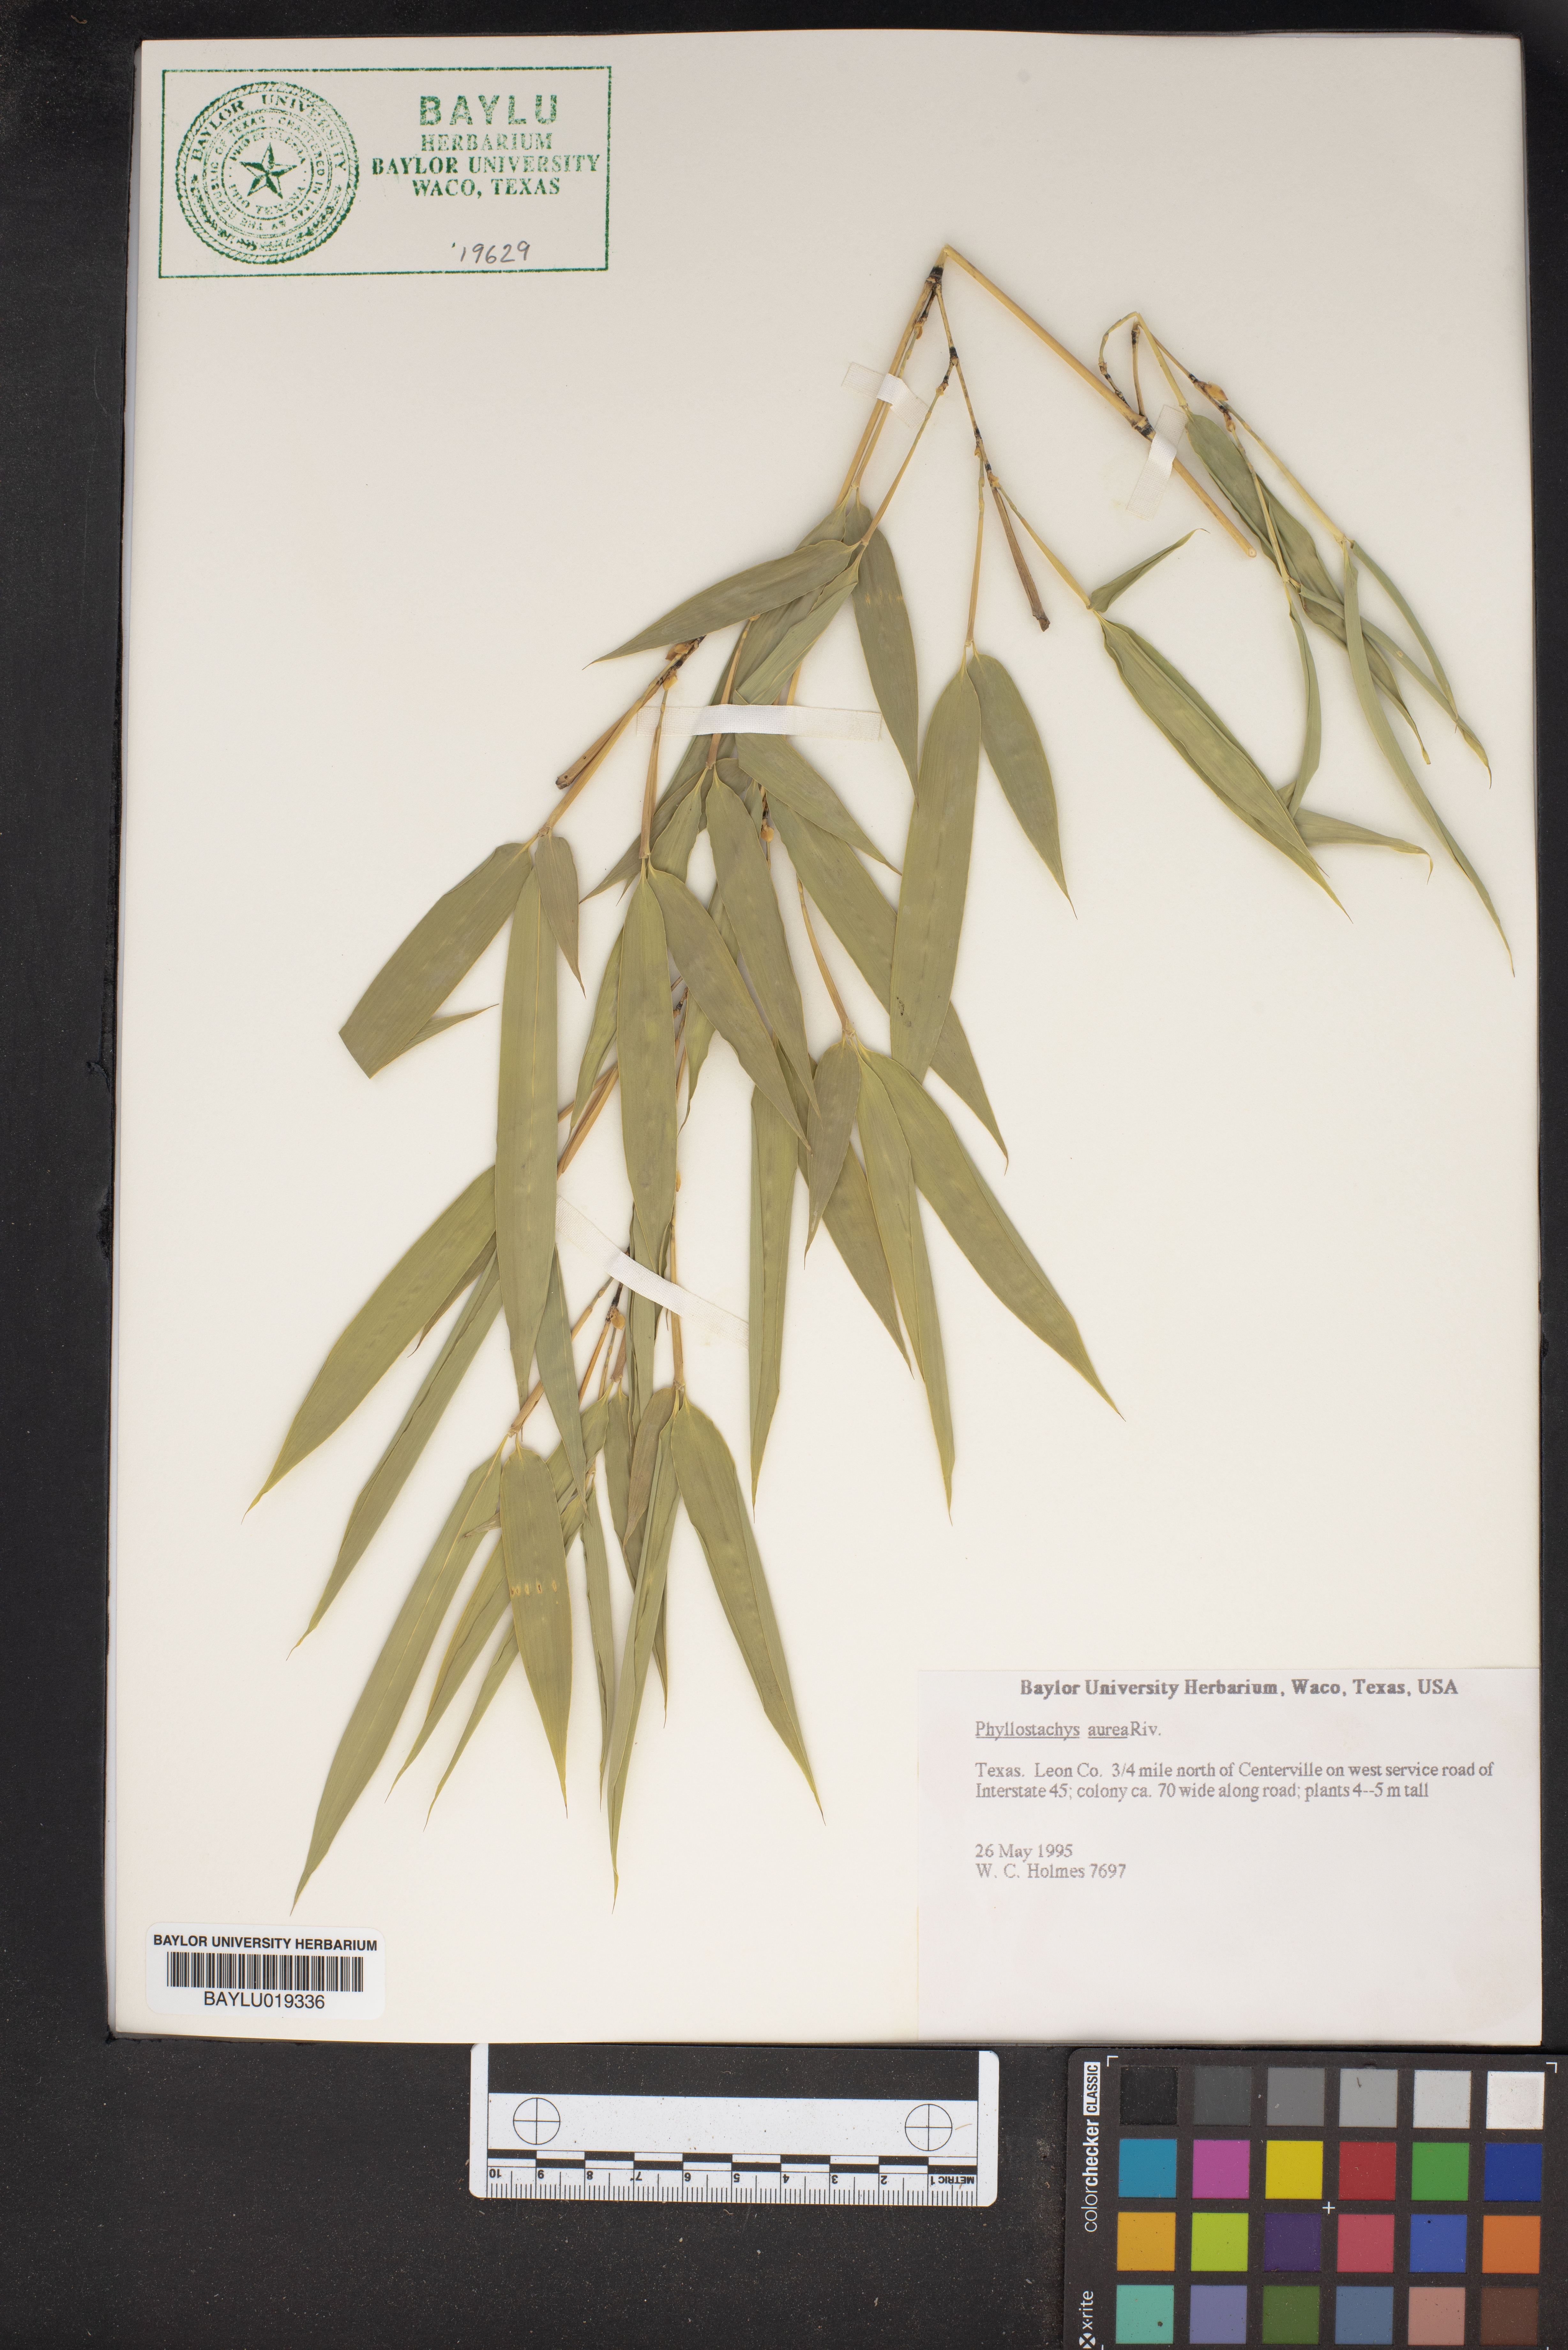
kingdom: Plantae
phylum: Tracheophyta
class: Liliopsida
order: Poales
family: Poaceae
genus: Phyllostachys
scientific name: Phyllostachys aurea
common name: Golden bamboo
